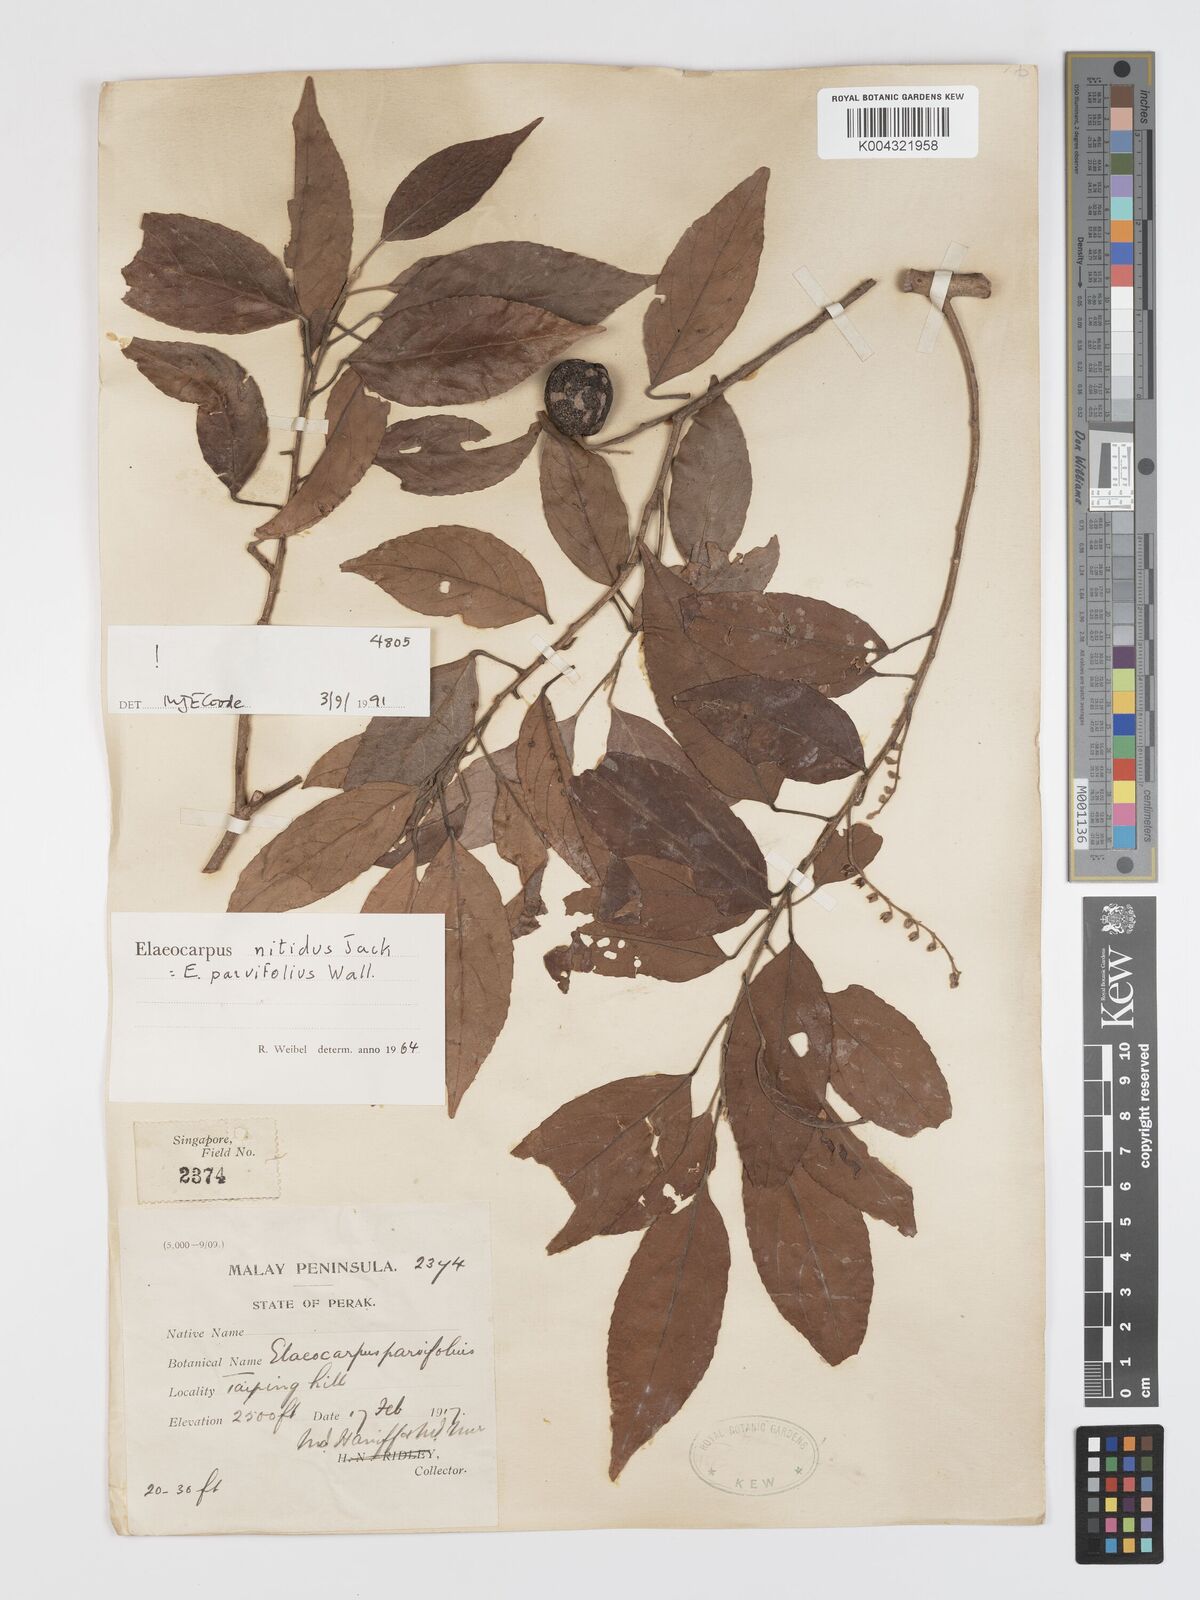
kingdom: Plantae
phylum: Tracheophyta
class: Magnoliopsida
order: Oxalidales
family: Elaeocarpaceae
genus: Elaeocarpus
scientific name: Elaeocarpus nitidus
